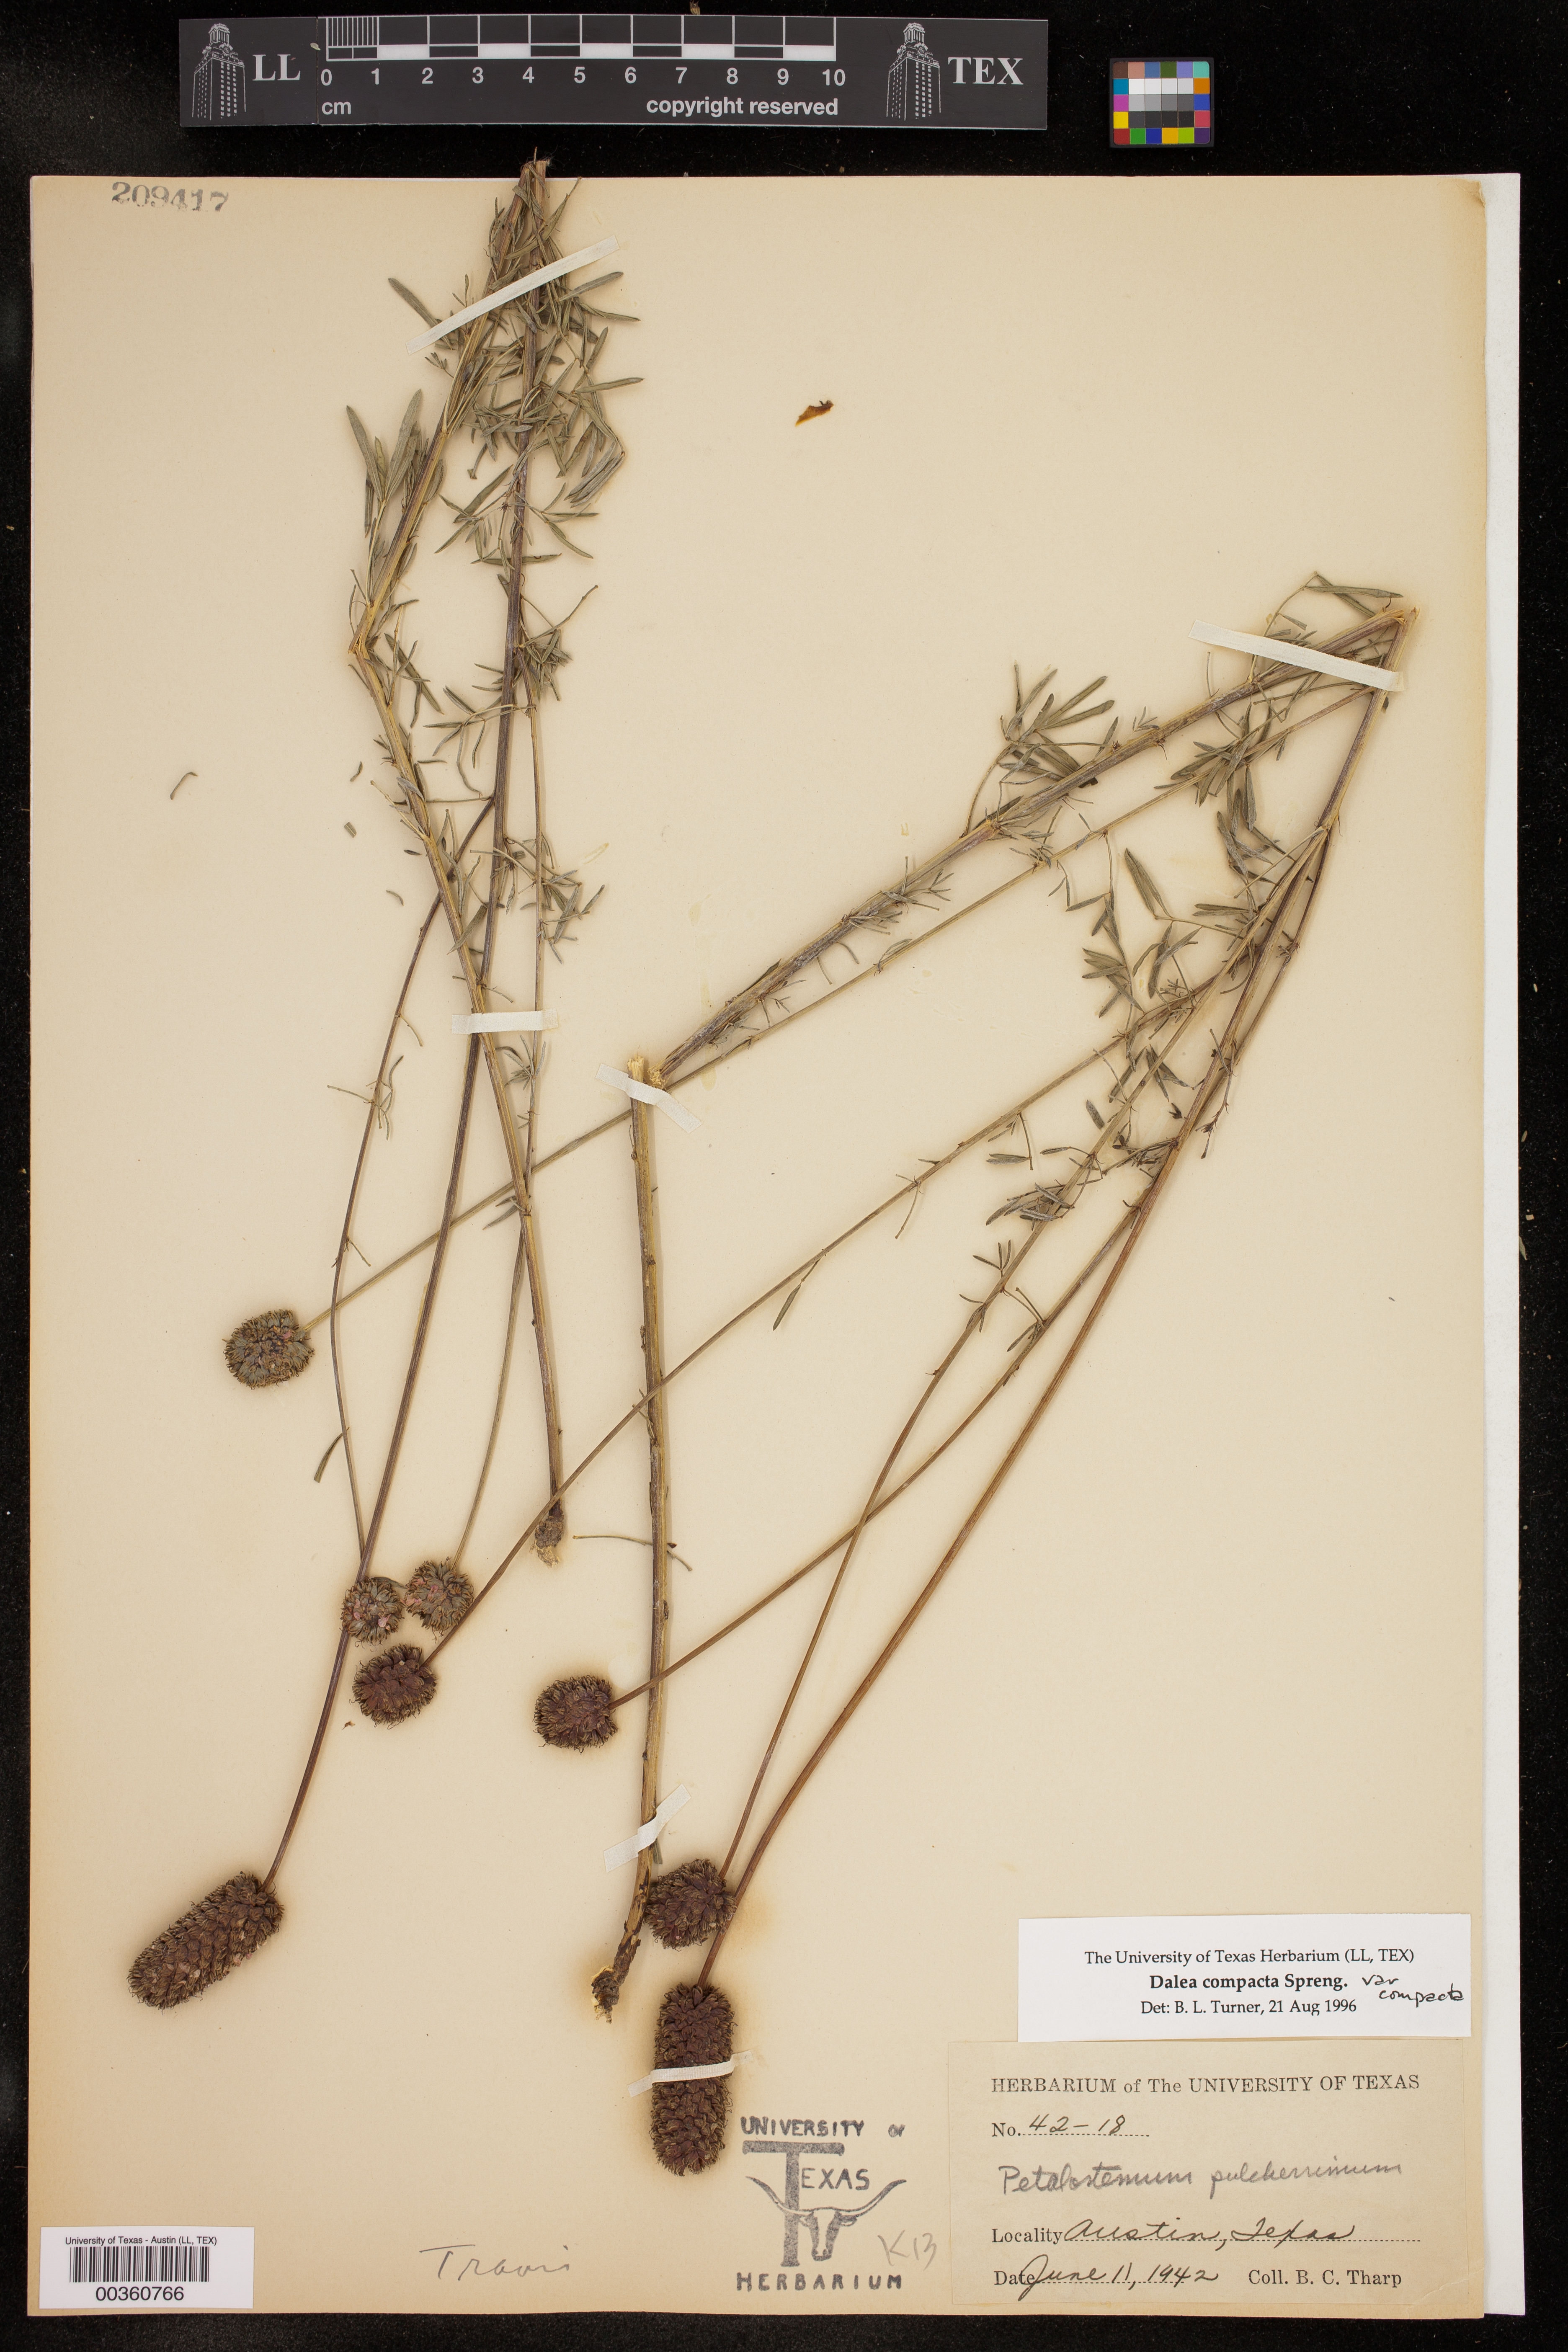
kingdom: Plantae
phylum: Tracheophyta
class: Magnoliopsida
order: Fabales
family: Fabaceae
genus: Dalea
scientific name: Dalea compacta
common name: Compact prairie-clover
